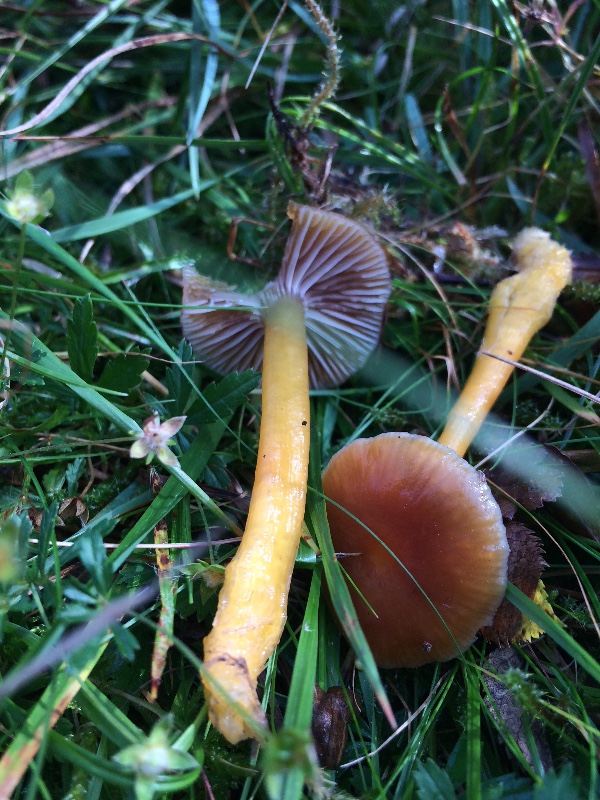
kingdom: Fungi
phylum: Basidiomycota
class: Agaricomycetes
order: Agaricales
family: Hygrophoraceae
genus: Gliophorus
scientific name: Gliophorus laetus
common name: brusk-vokshat
